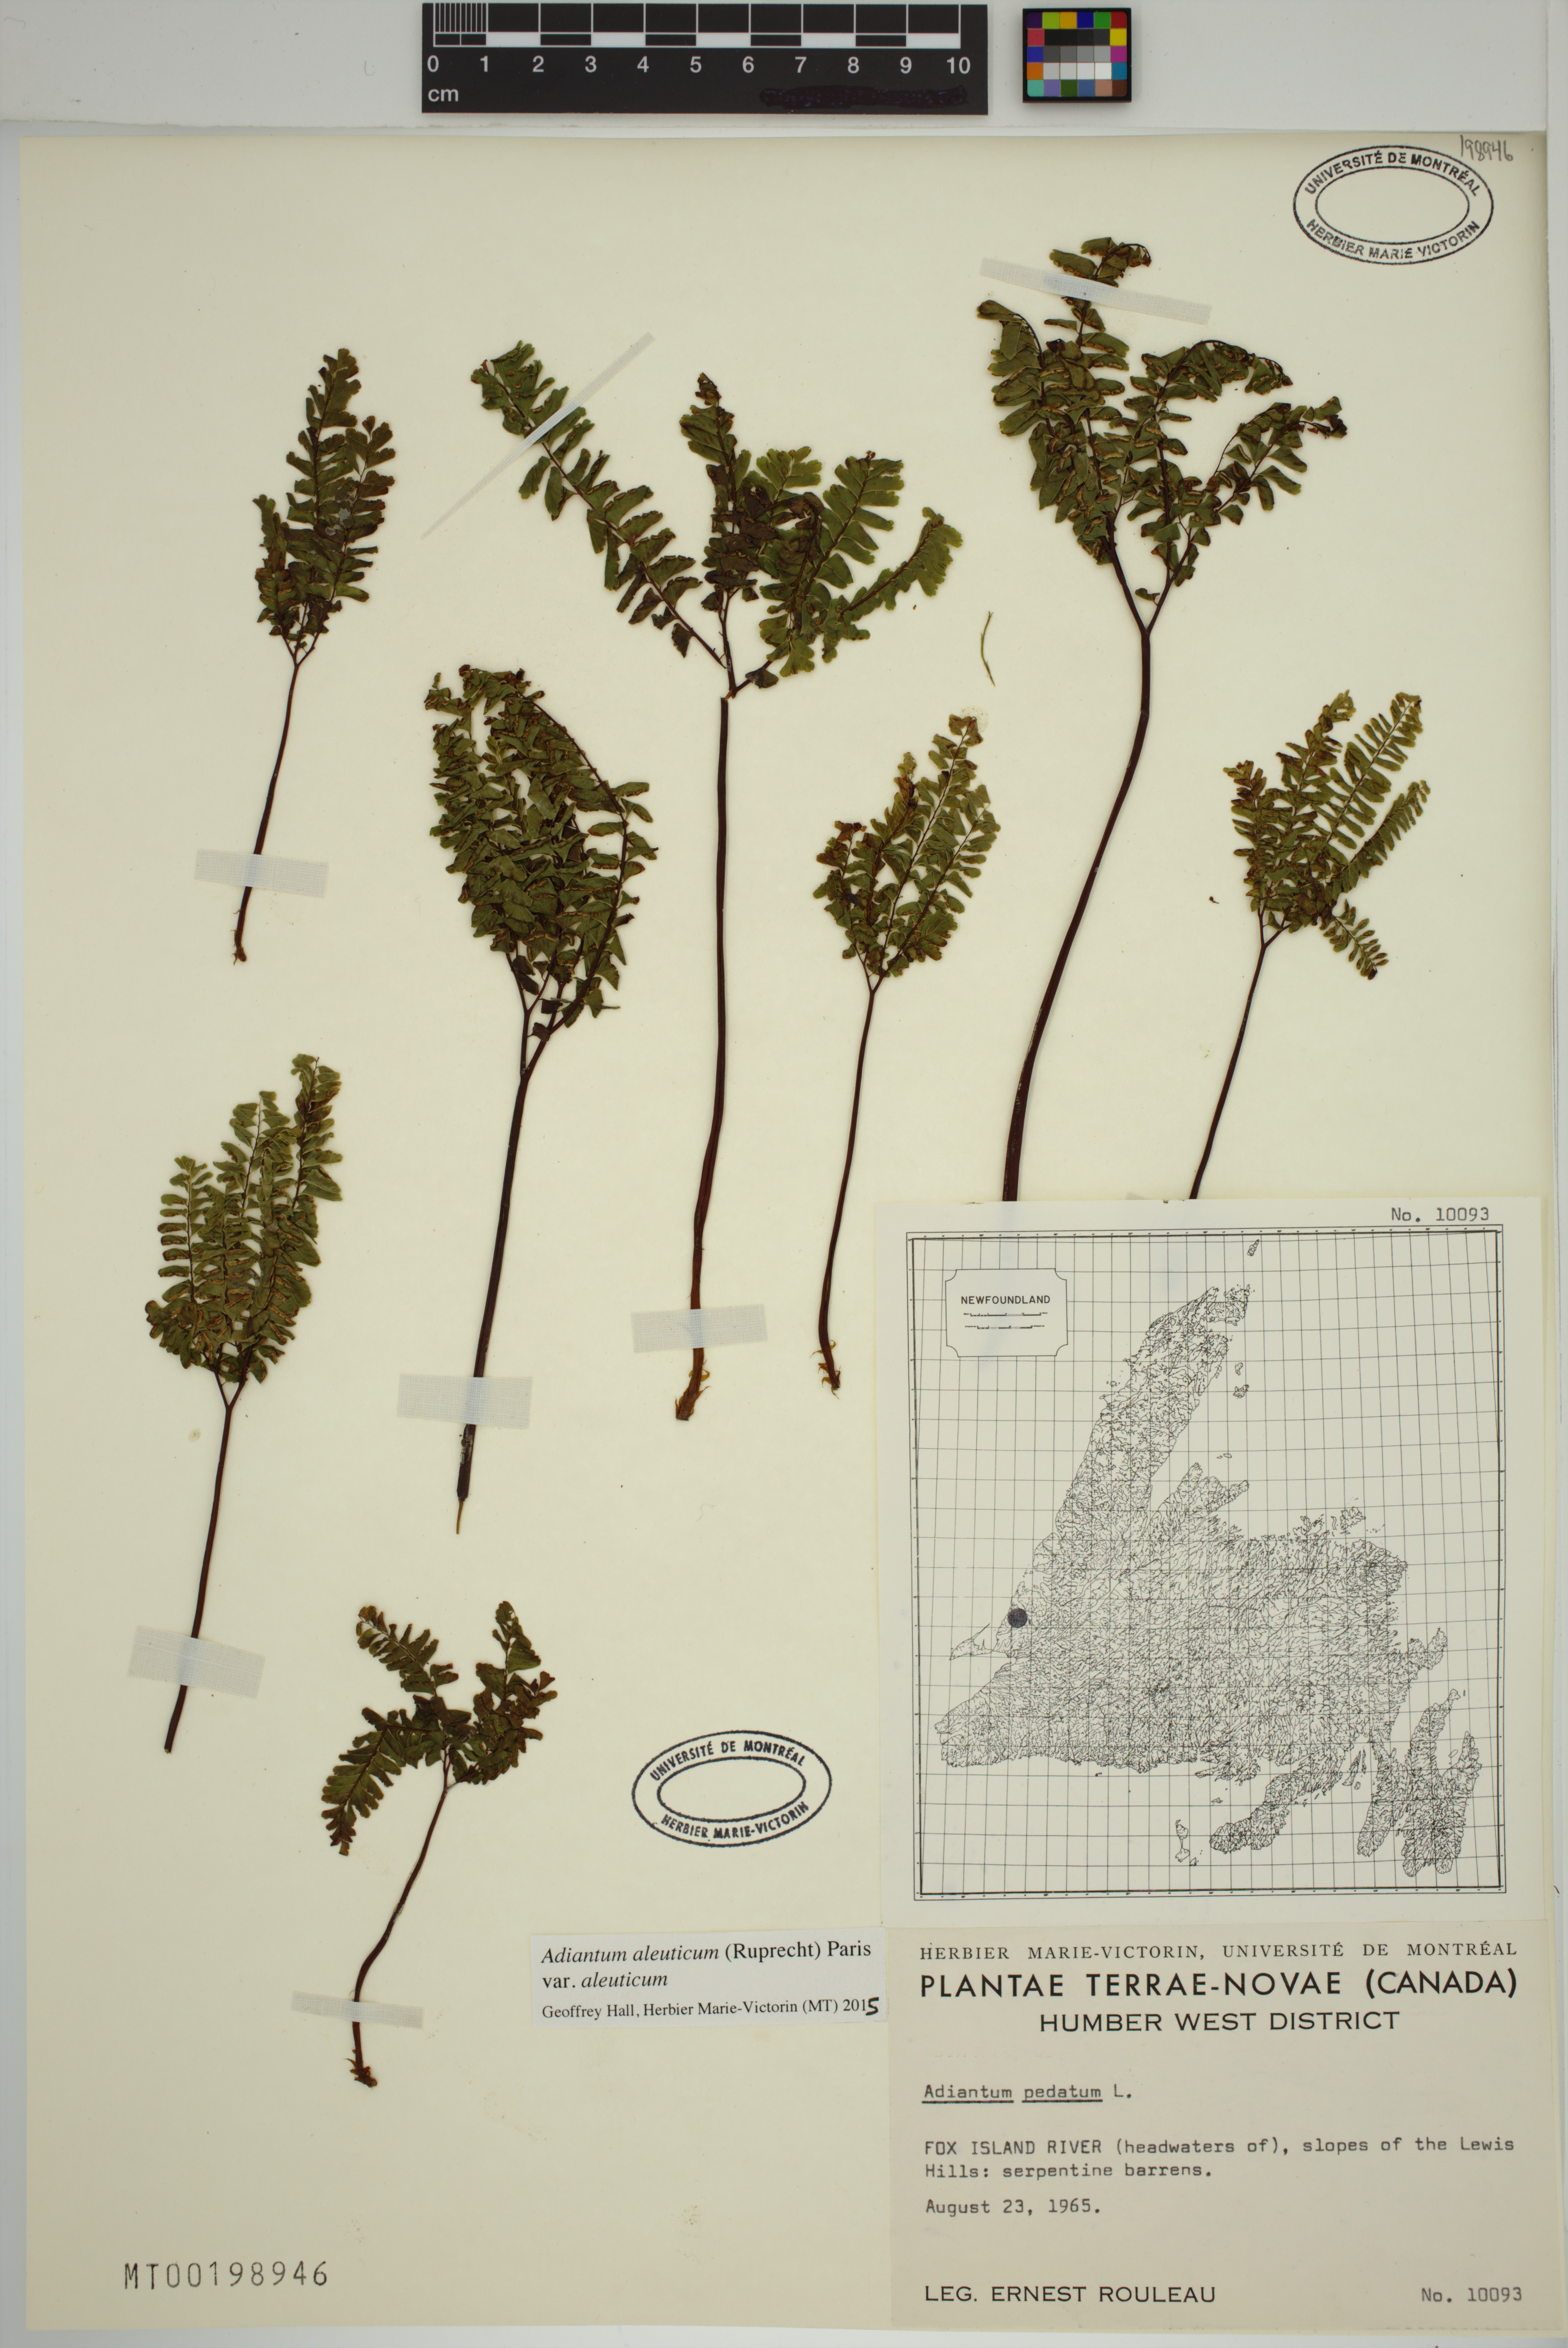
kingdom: Plantae
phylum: Tracheophyta
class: Polypodiopsida
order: Polypodiales
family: Pteridaceae
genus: Adiantum
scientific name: Adiantum aleuticum
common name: Aleutian maidenhair fern
